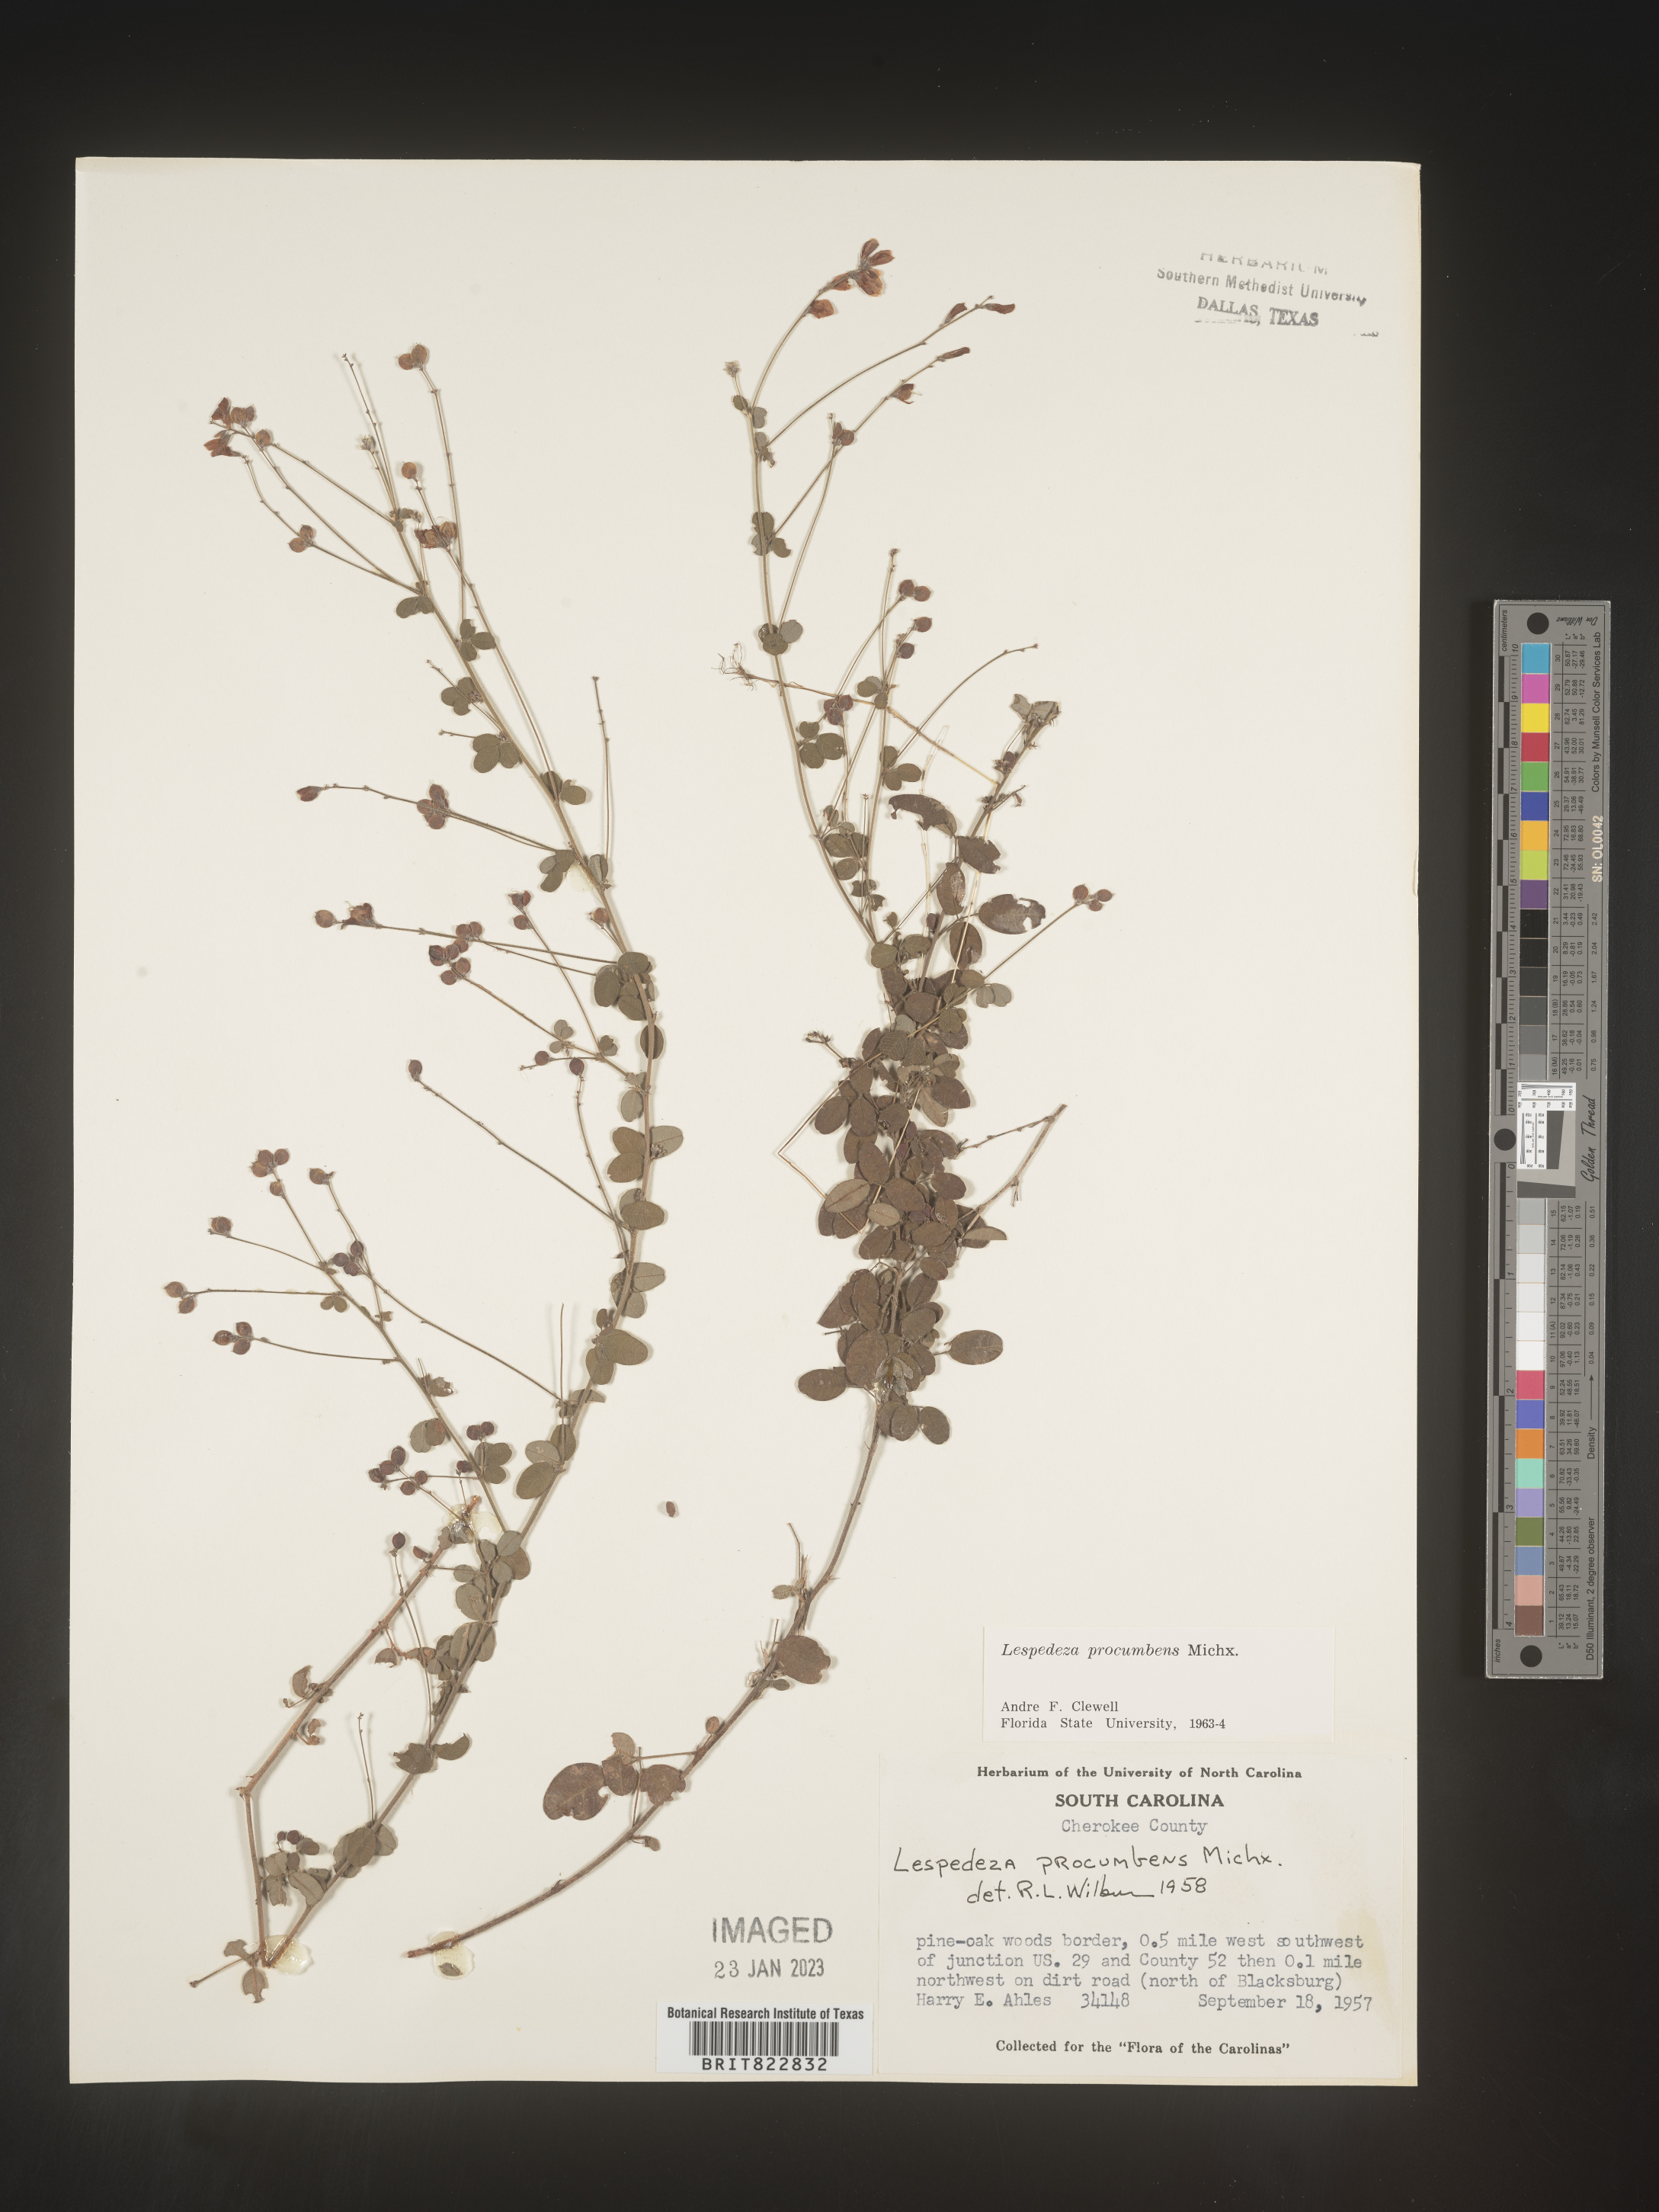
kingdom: Plantae
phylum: Tracheophyta
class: Magnoliopsida
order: Fabales
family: Fabaceae
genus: Lespedeza
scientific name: Lespedeza procumbens
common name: Downy trailing bush-clover
